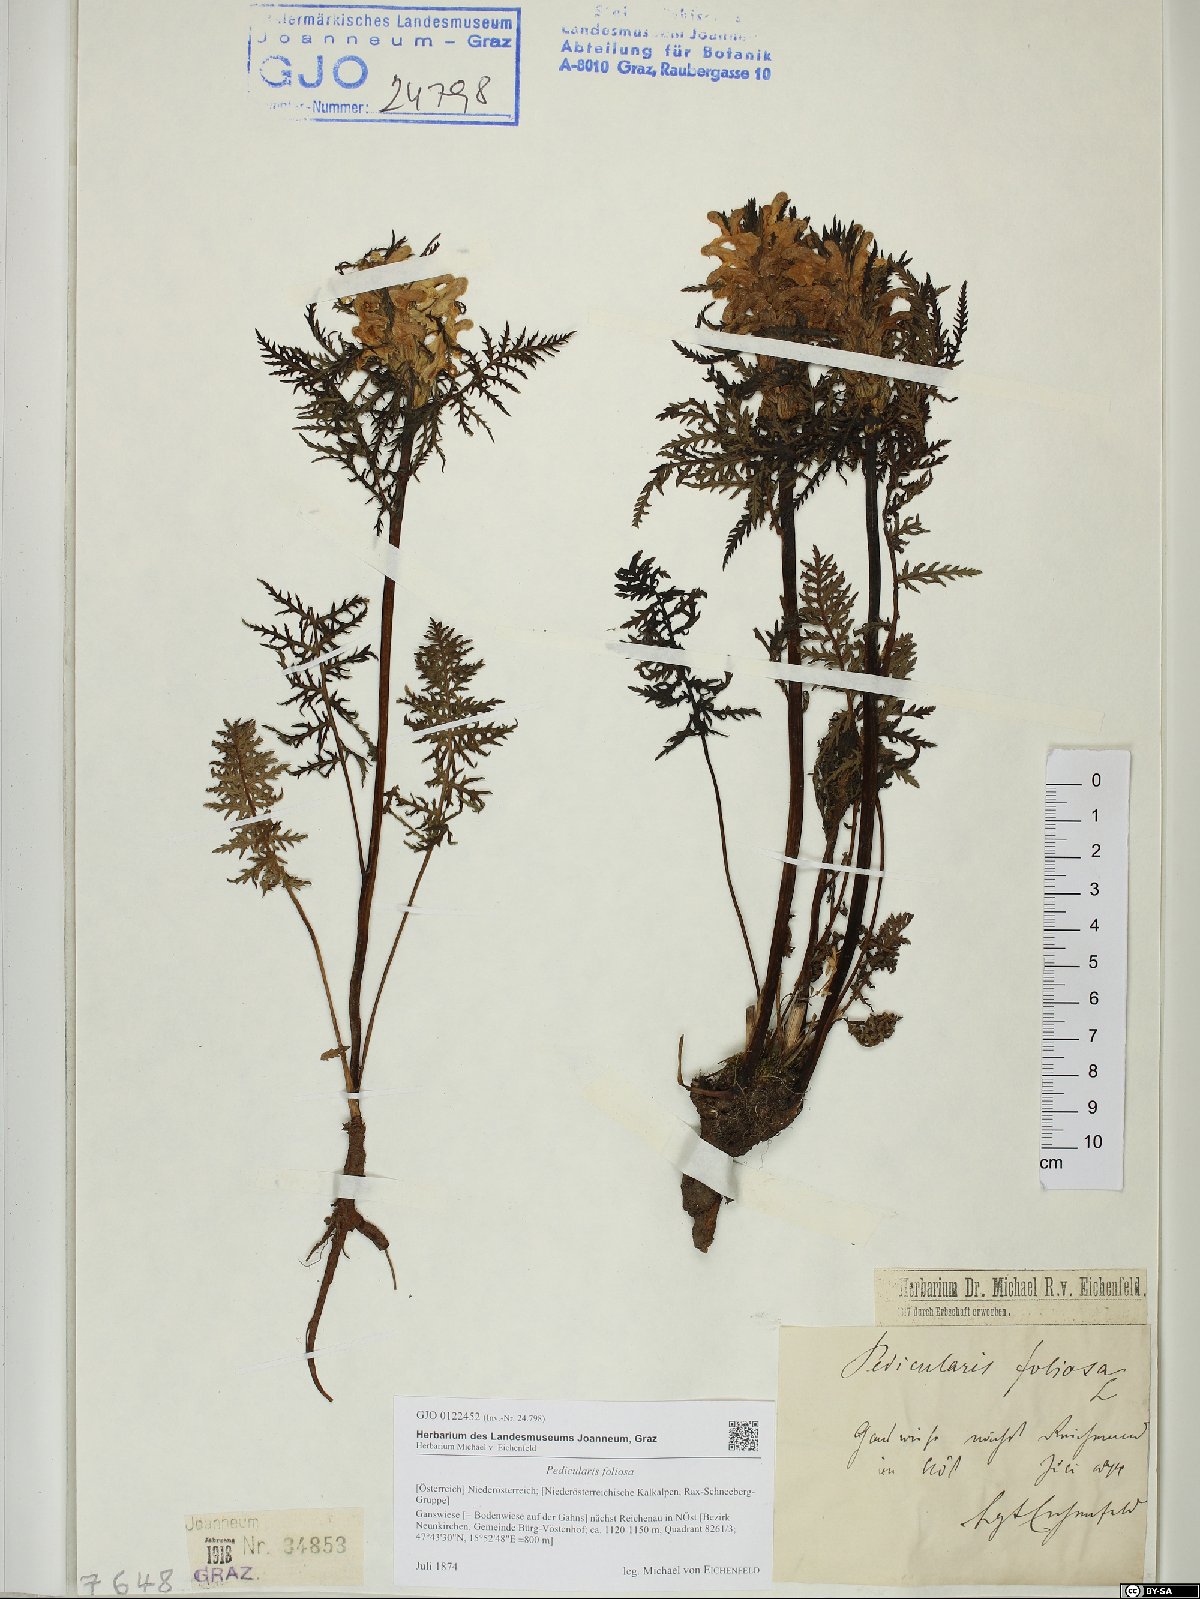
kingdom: Plantae
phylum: Tracheophyta
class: Magnoliopsida
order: Lamiales
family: Orobanchaceae
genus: Pedicularis
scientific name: Pedicularis foliosa
